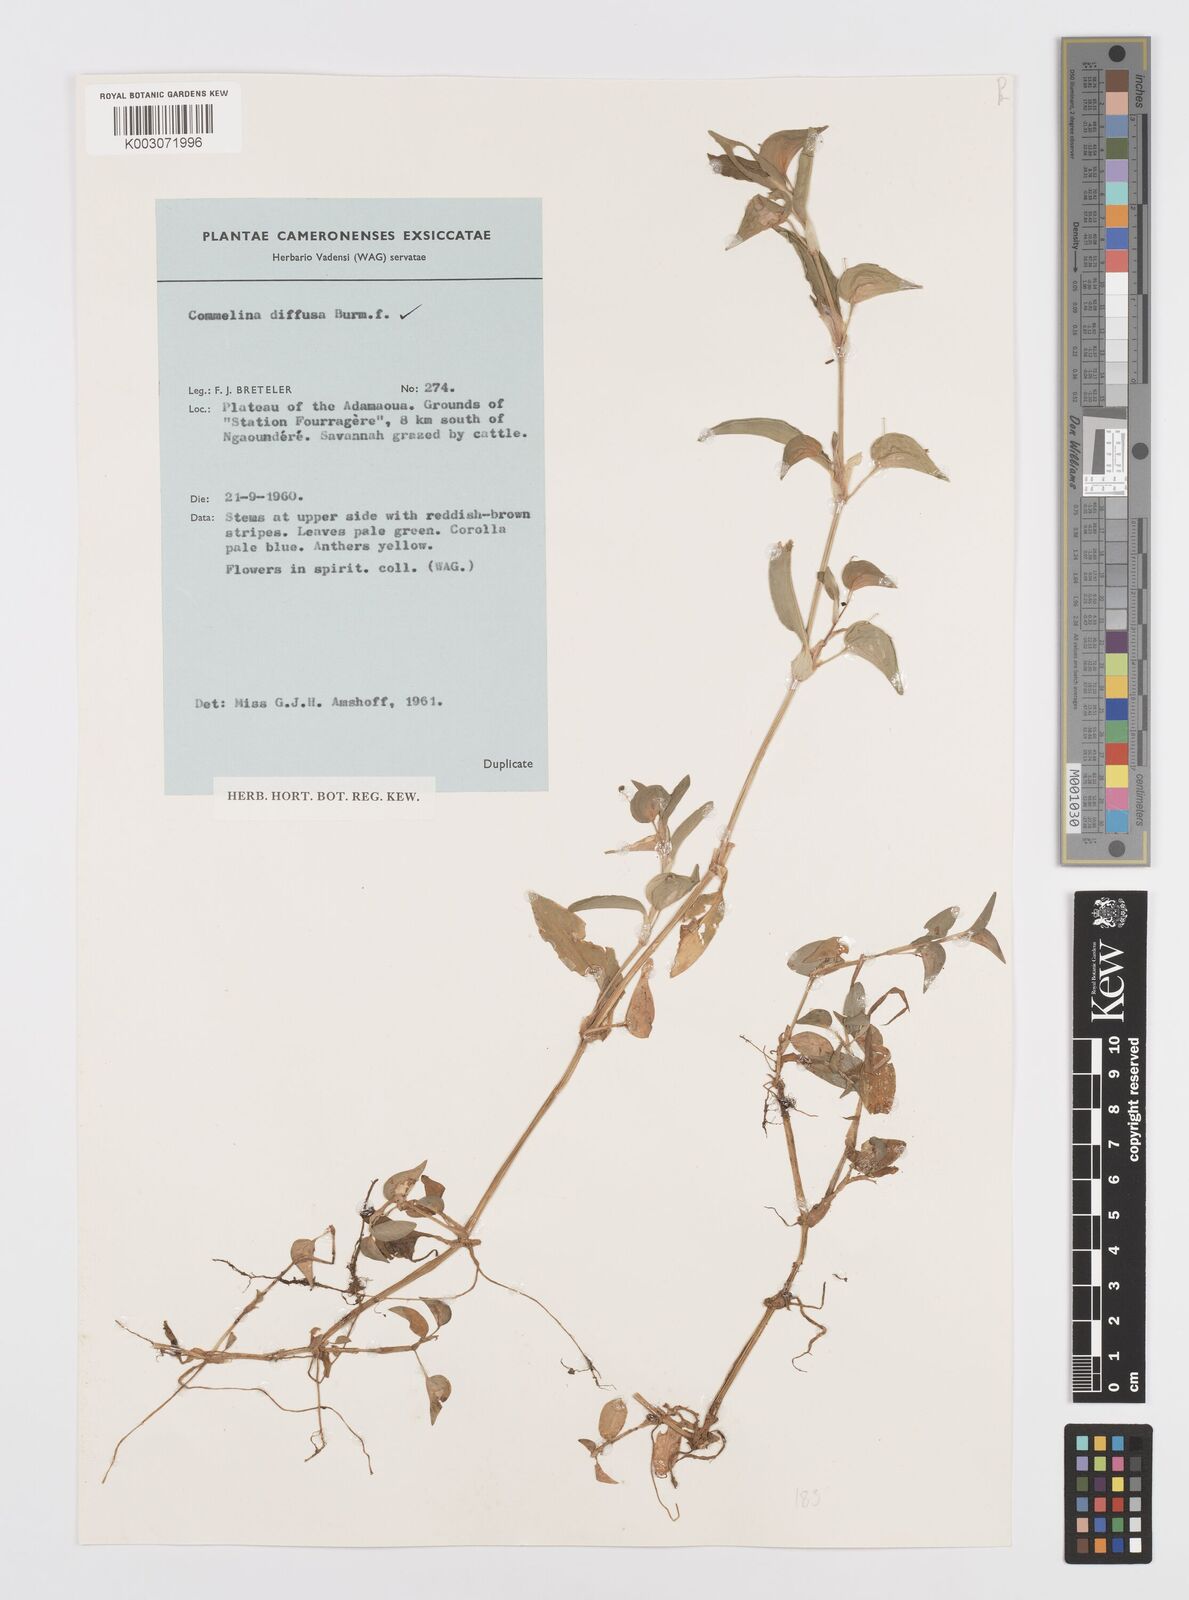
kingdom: Plantae
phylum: Tracheophyta
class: Liliopsida
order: Commelinales
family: Commelinaceae
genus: Commelina
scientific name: Commelina diffusa
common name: Climbing dayflower
